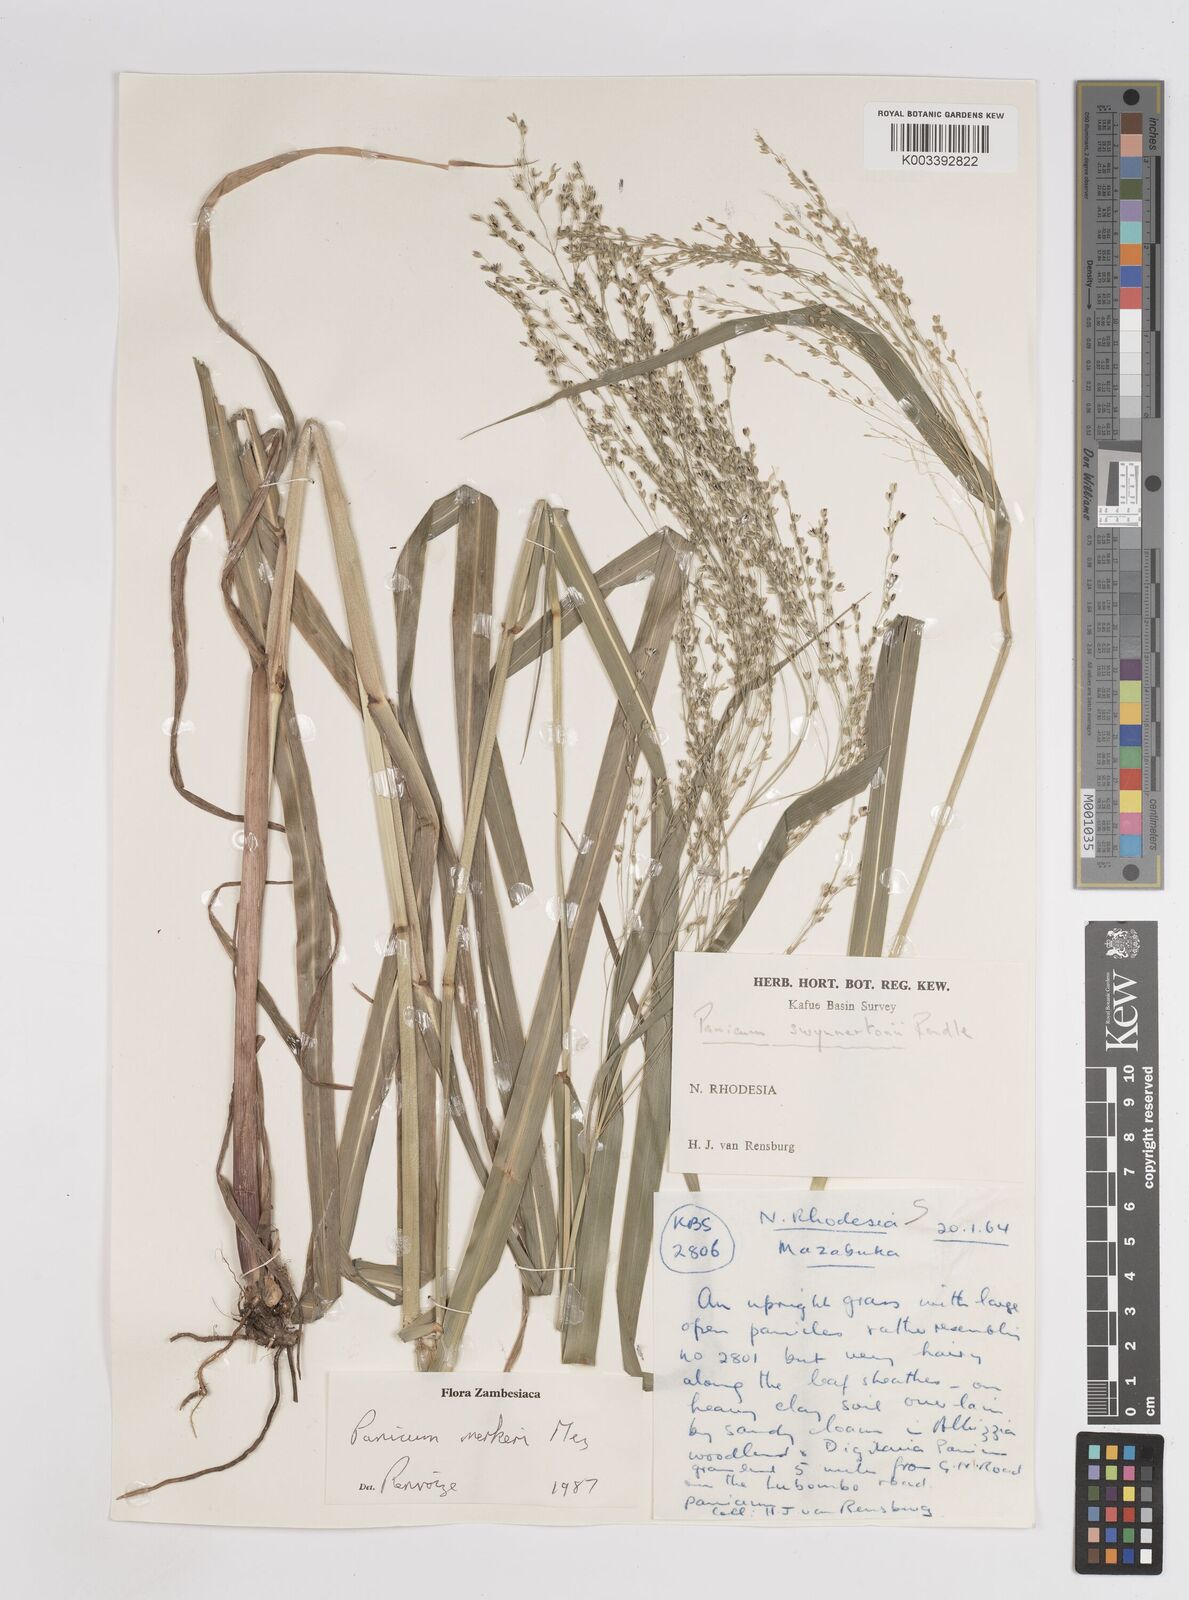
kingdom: Plantae
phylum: Tracheophyta
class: Liliopsida
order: Poales
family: Poaceae
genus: Panicum
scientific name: Panicum merkeri
